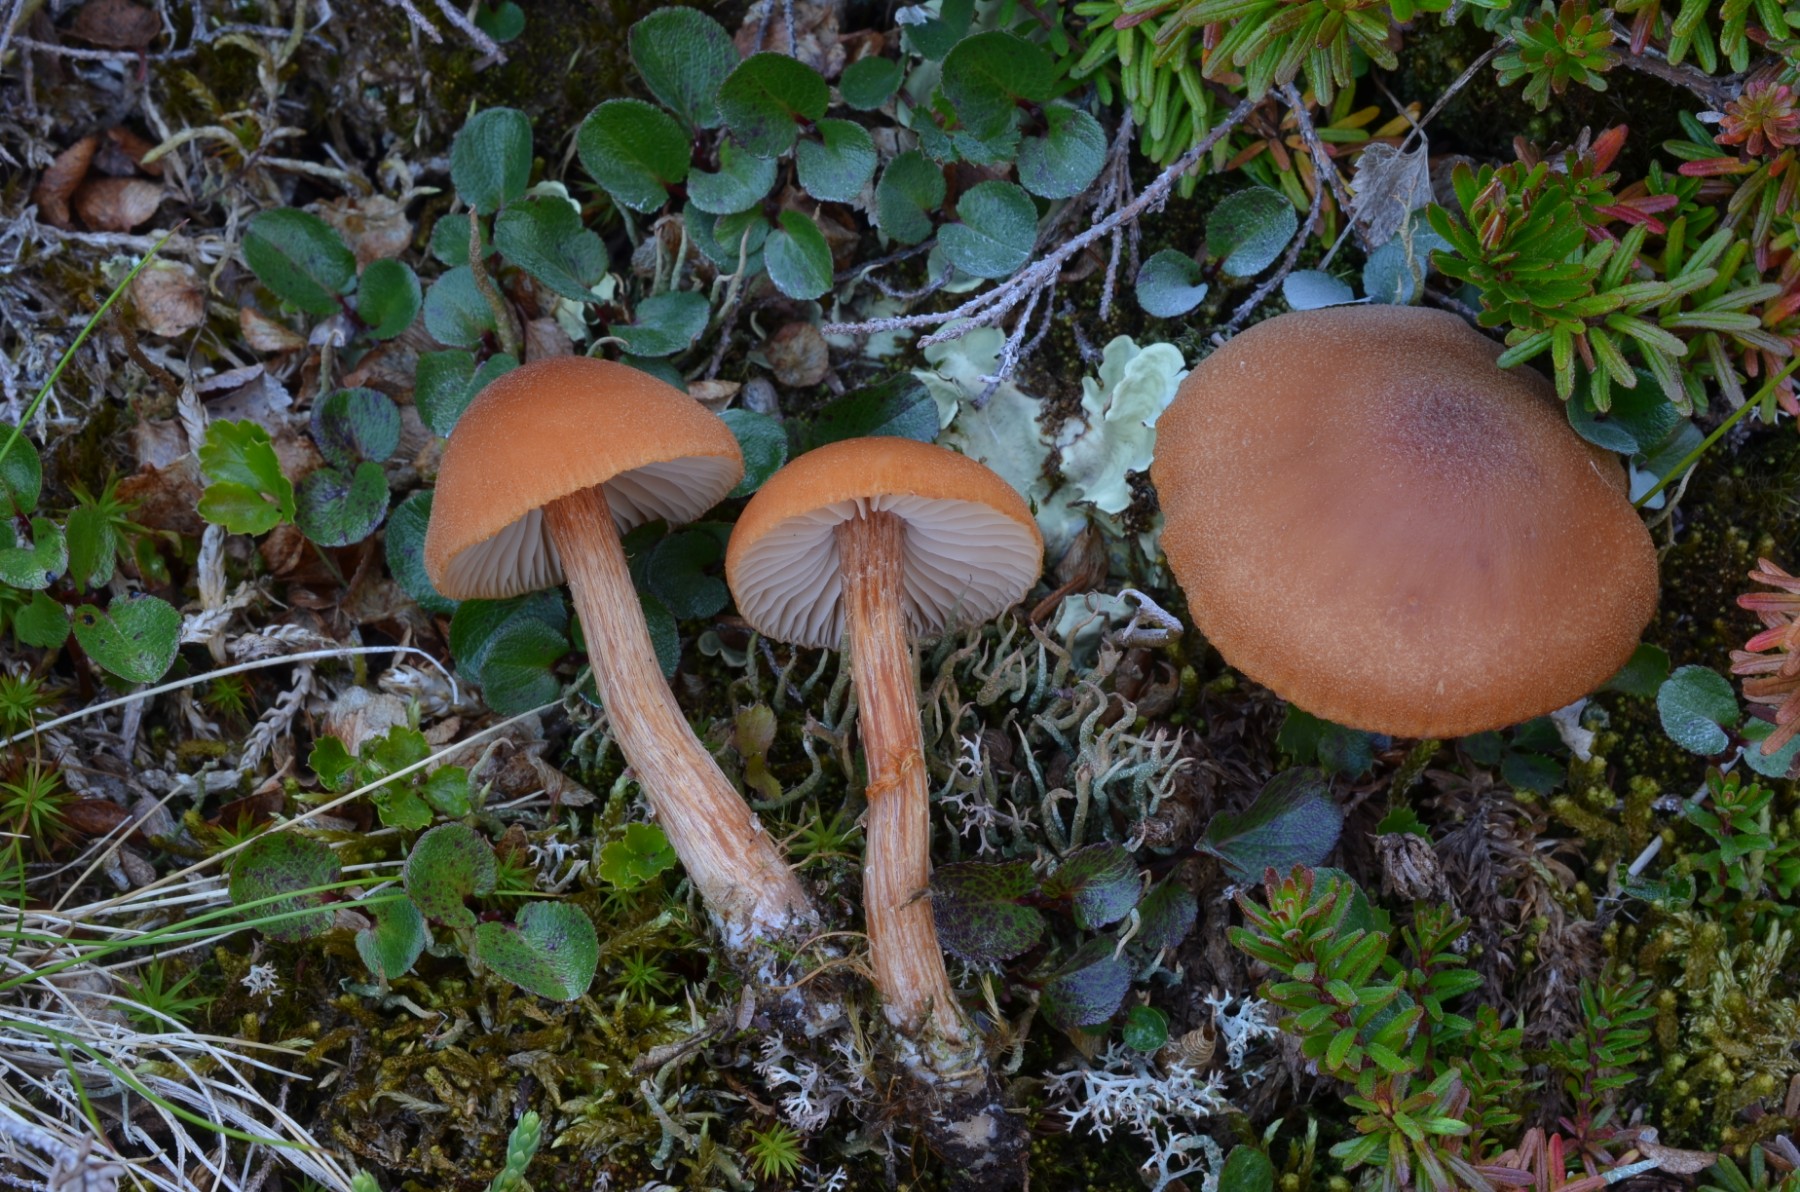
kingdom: Fungi
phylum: Basidiomycota
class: Agaricomycetes
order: Agaricales
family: Hydnangiaceae
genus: Laccaria
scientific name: Laccaria proxima
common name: stor ametysthat
